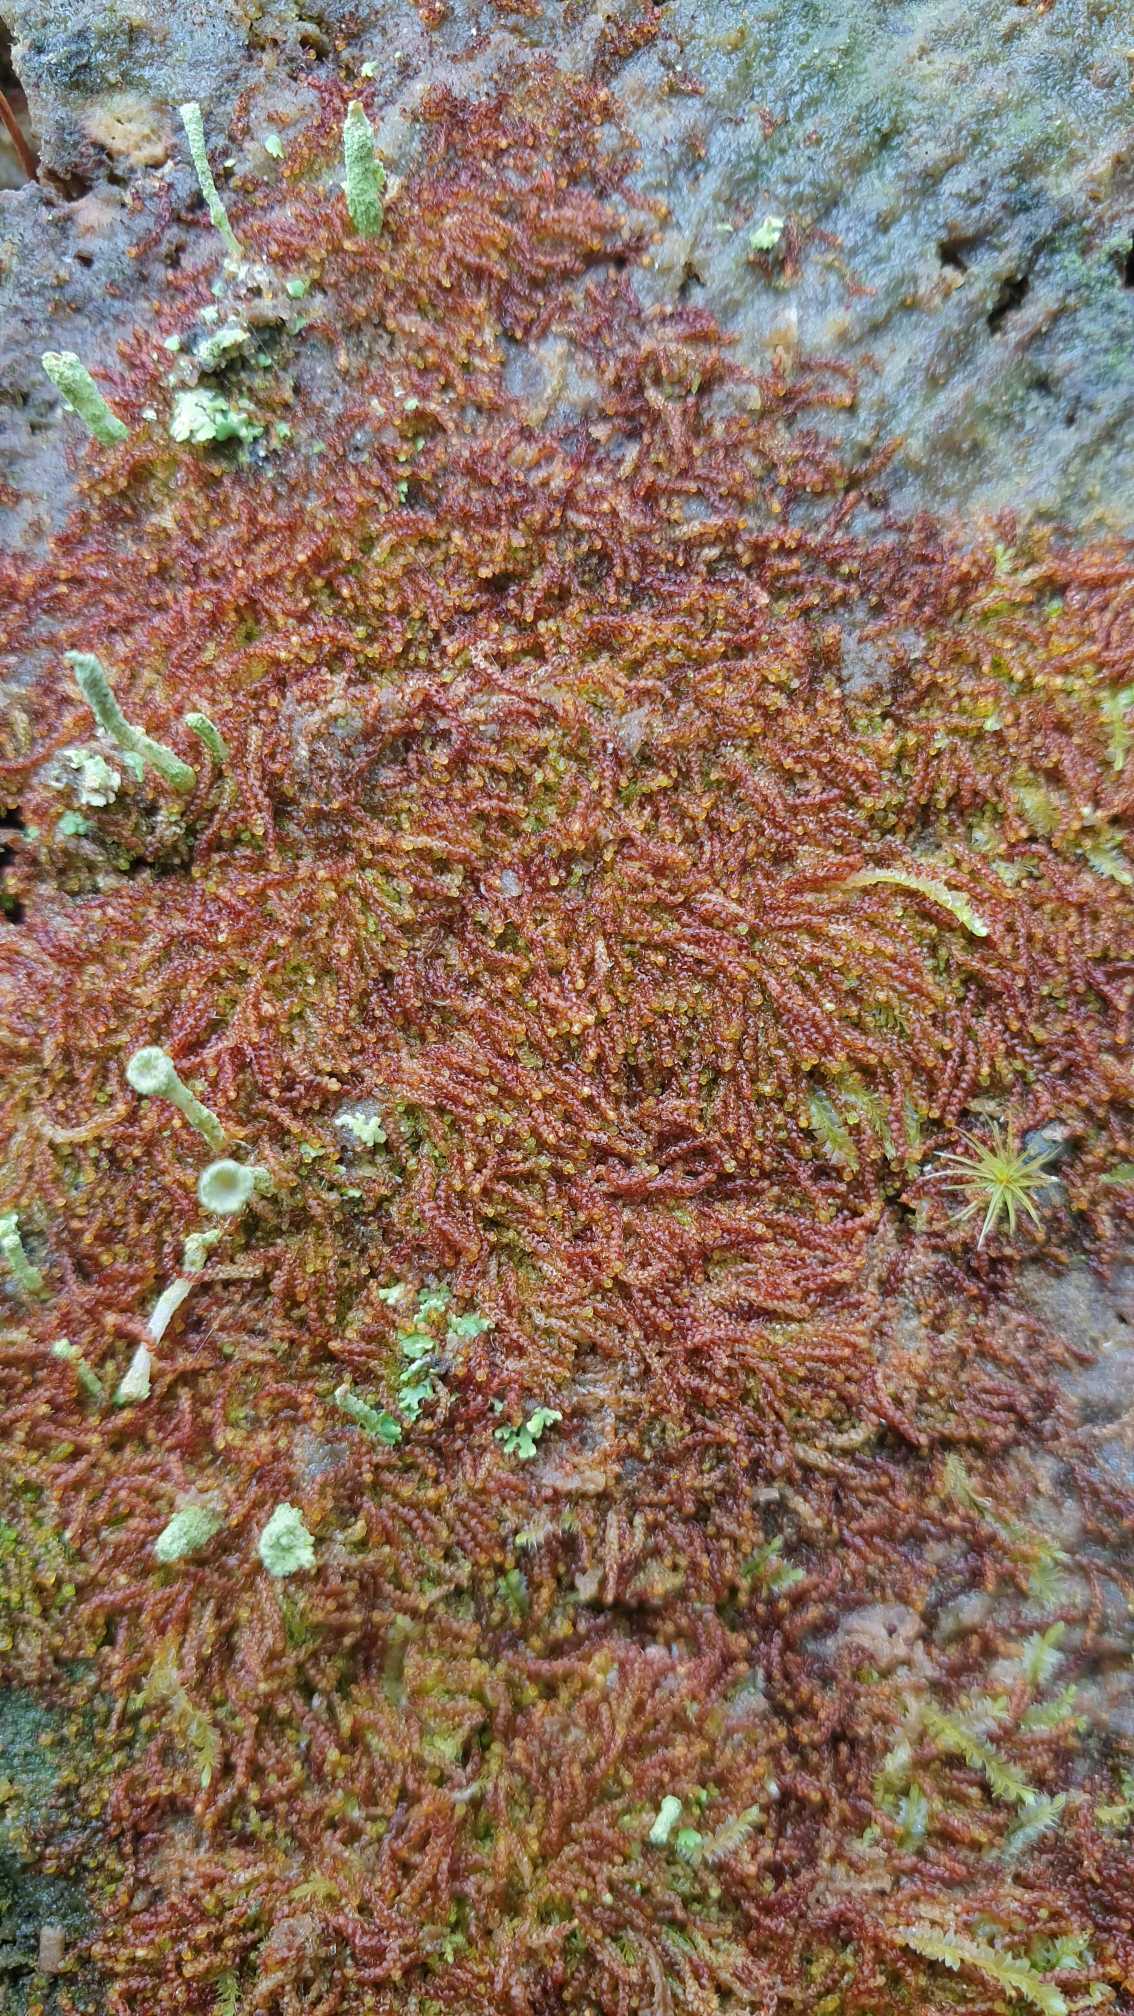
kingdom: Plantae
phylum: Marchantiophyta
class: Jungermanniopsida
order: Jungermanniales
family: Cephaloziaceae
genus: Nowellia
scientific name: Nowellia curvifolia
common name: Krumbladet stødmos
